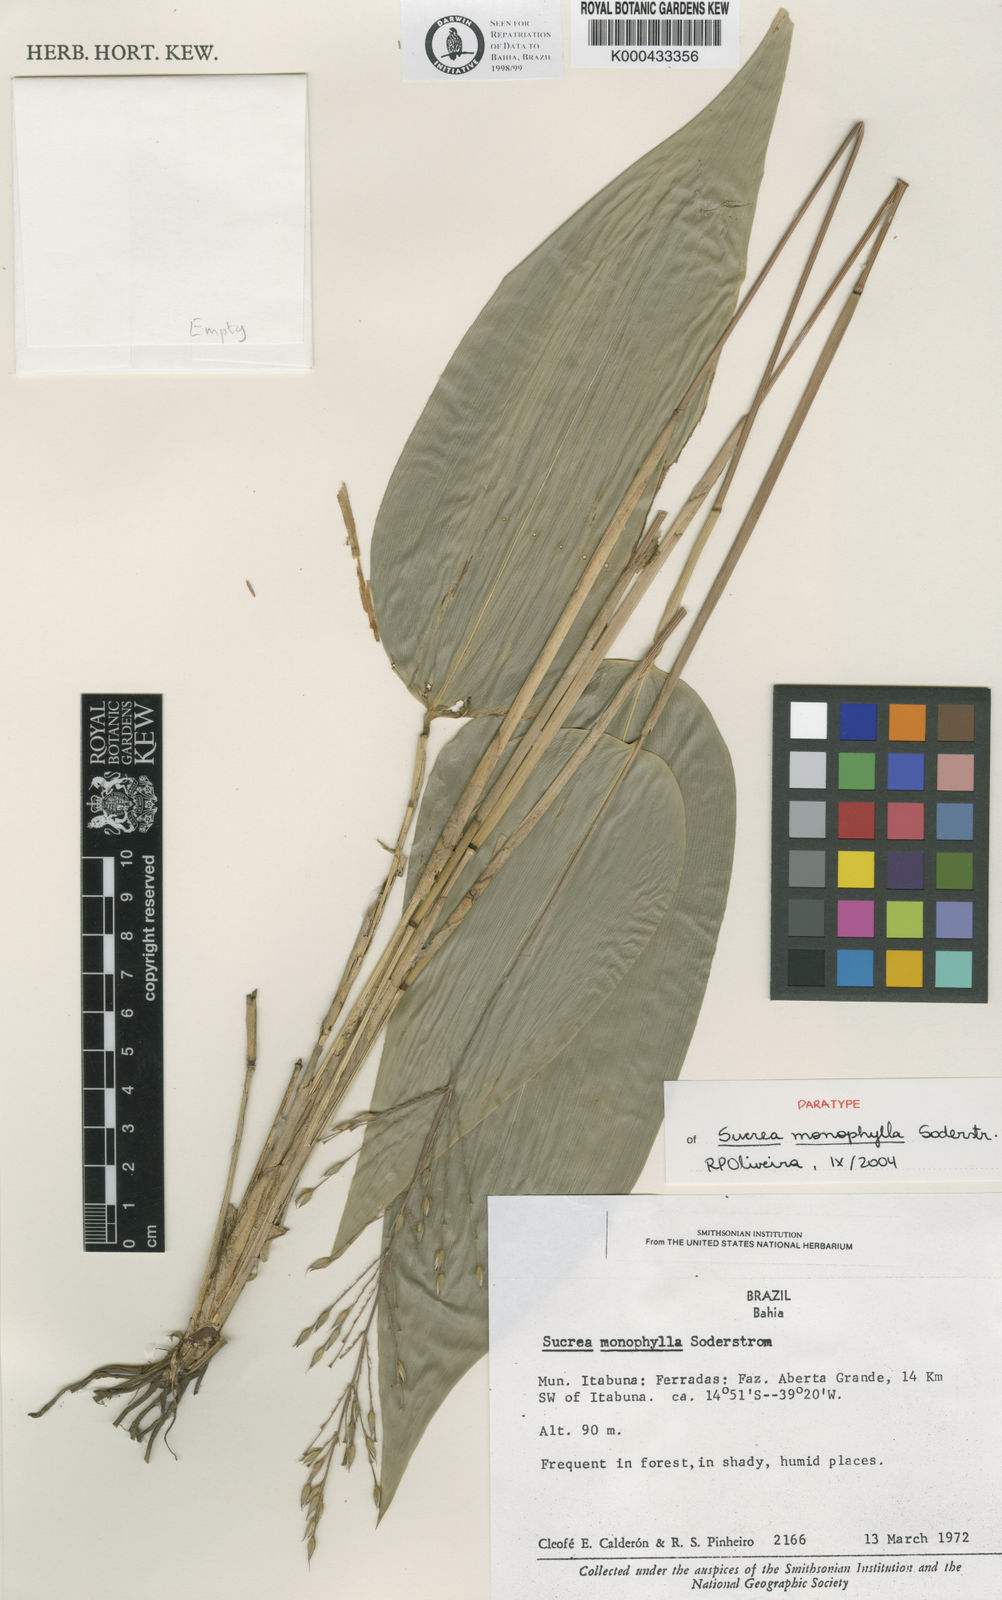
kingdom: Plantae
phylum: Tracheophyta
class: Liliopsida
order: Poales
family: Poaceae
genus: Raddia
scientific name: Raddia monophylla
